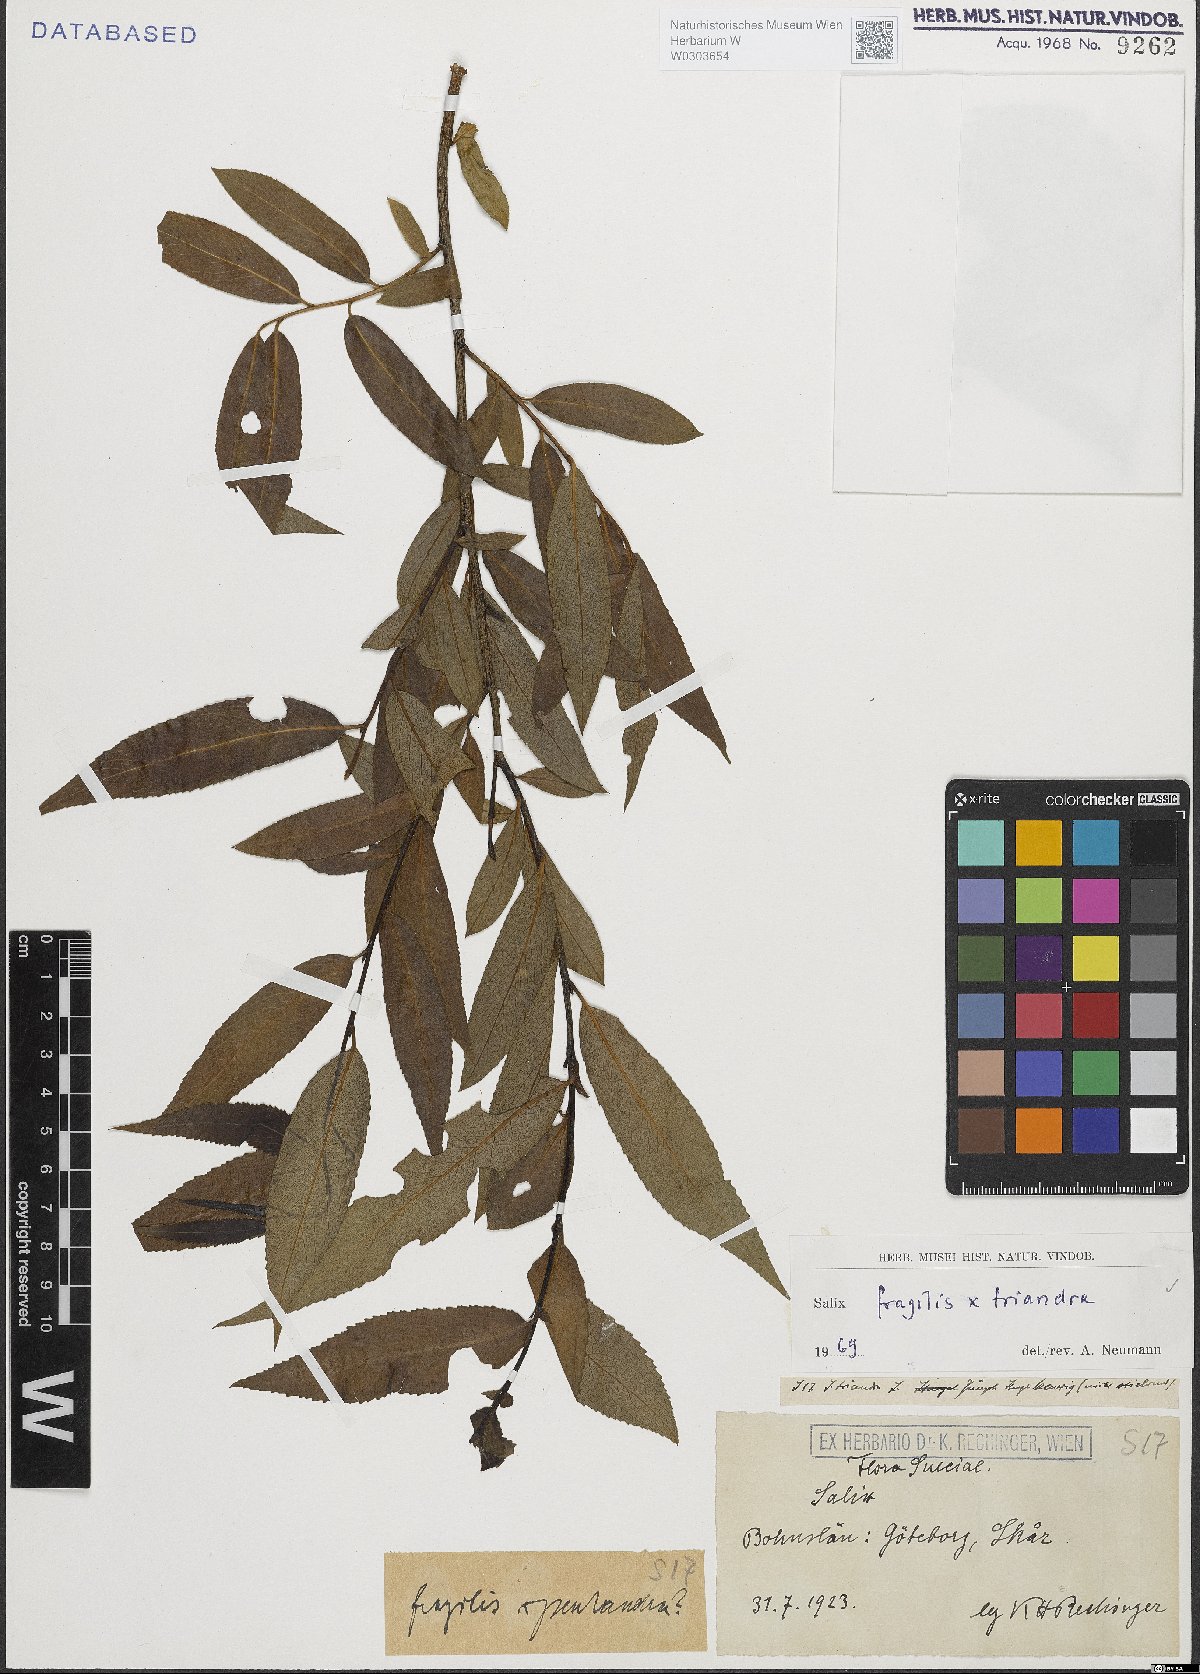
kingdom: Plantae
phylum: Tracheophyta
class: Magnoliopsida
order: Malpighiales
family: Salicaceae
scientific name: Salicaceae
